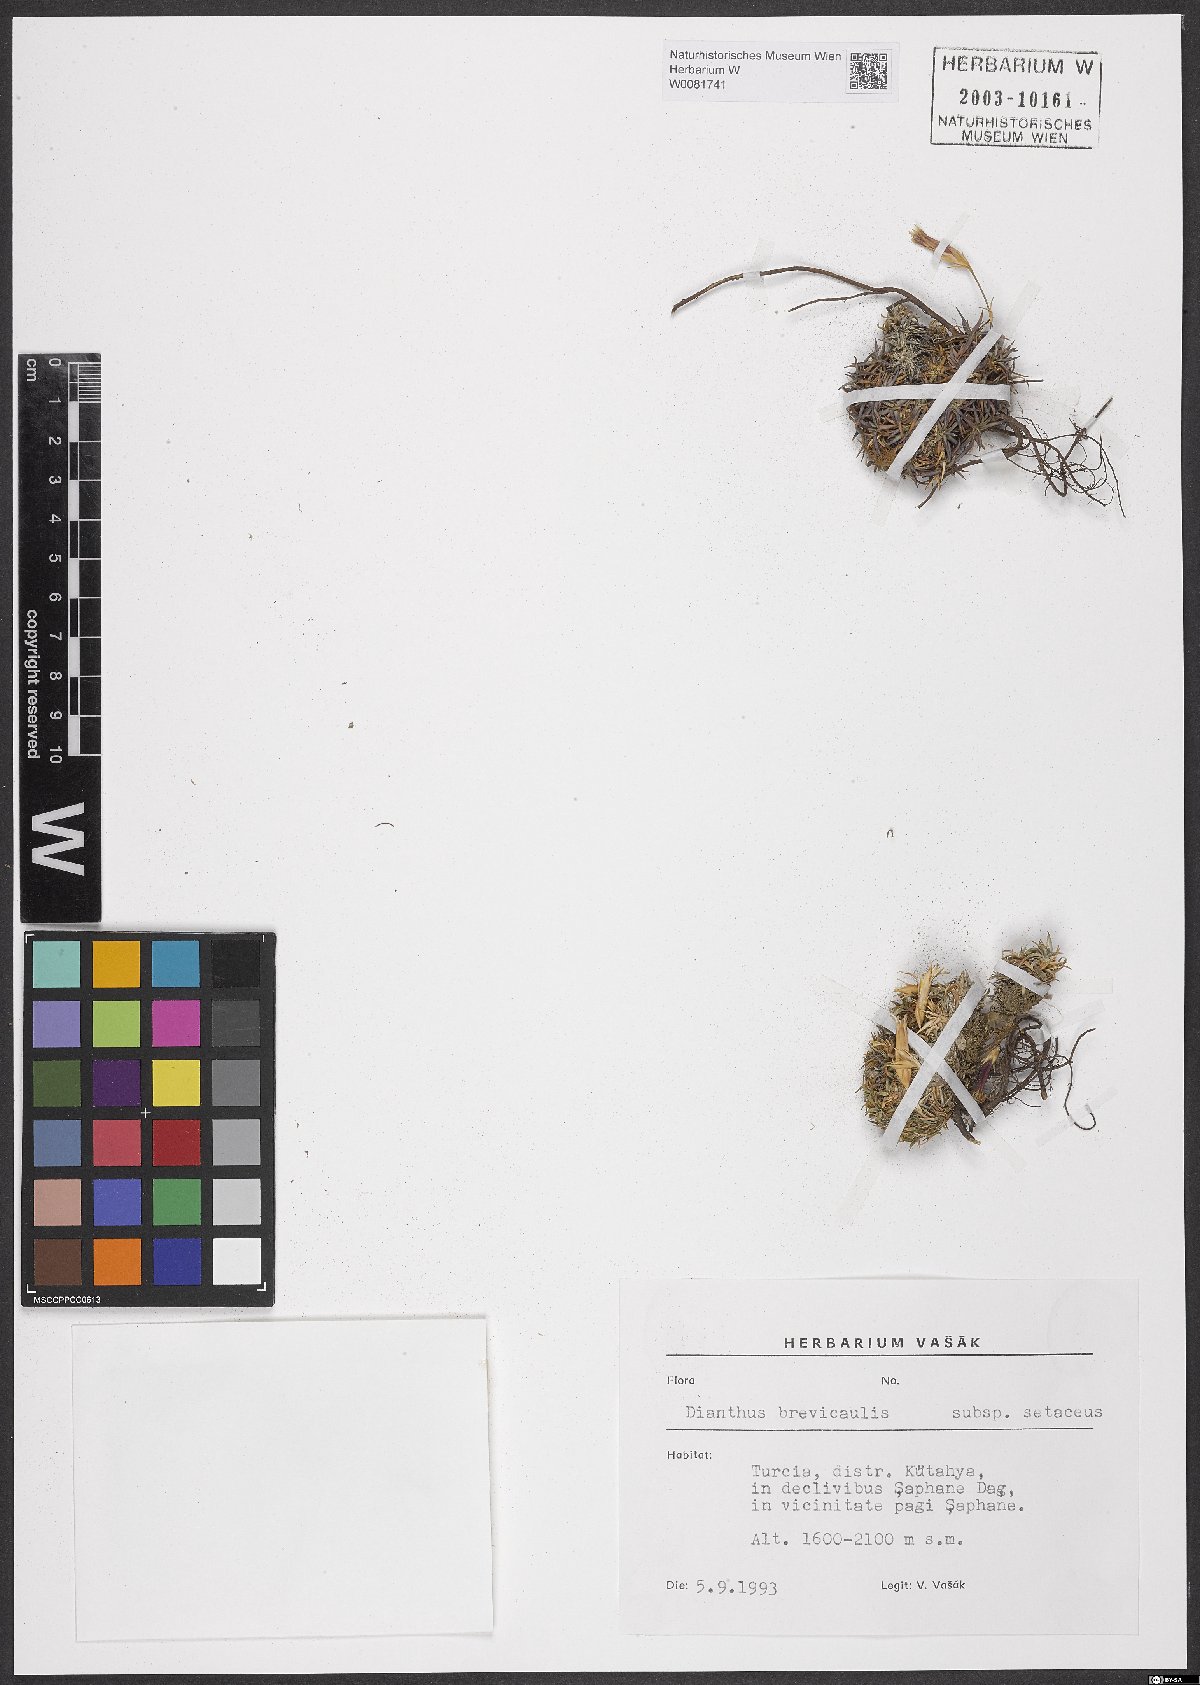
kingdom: Plantae
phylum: Tracheophyta
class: Magnoliopsida
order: Caryophyllales
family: Caryophyllaceae
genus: Dianthus
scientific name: Dianthus brevicaulis
